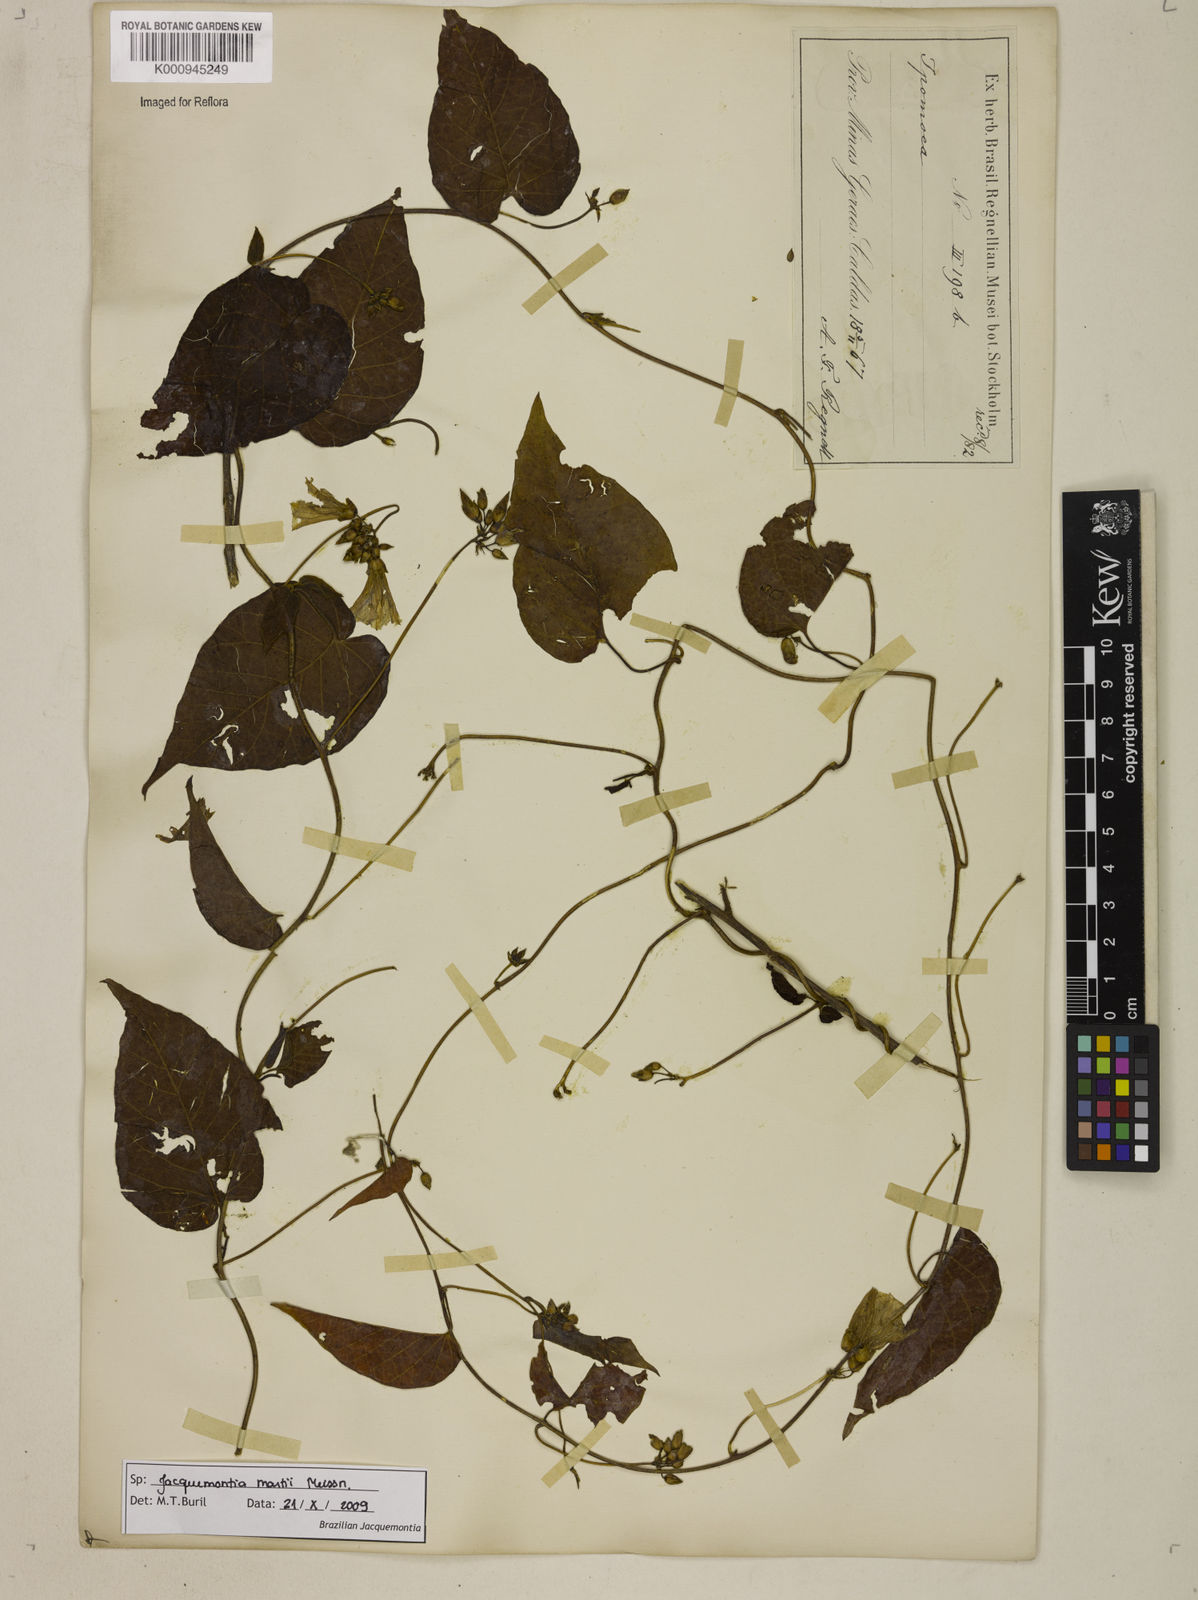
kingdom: Plantae
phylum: Tracheophyta
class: Magnoliopsida
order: Solanales
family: Convolvulaceae
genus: Jacquemontia
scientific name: Jacquemontia martii
